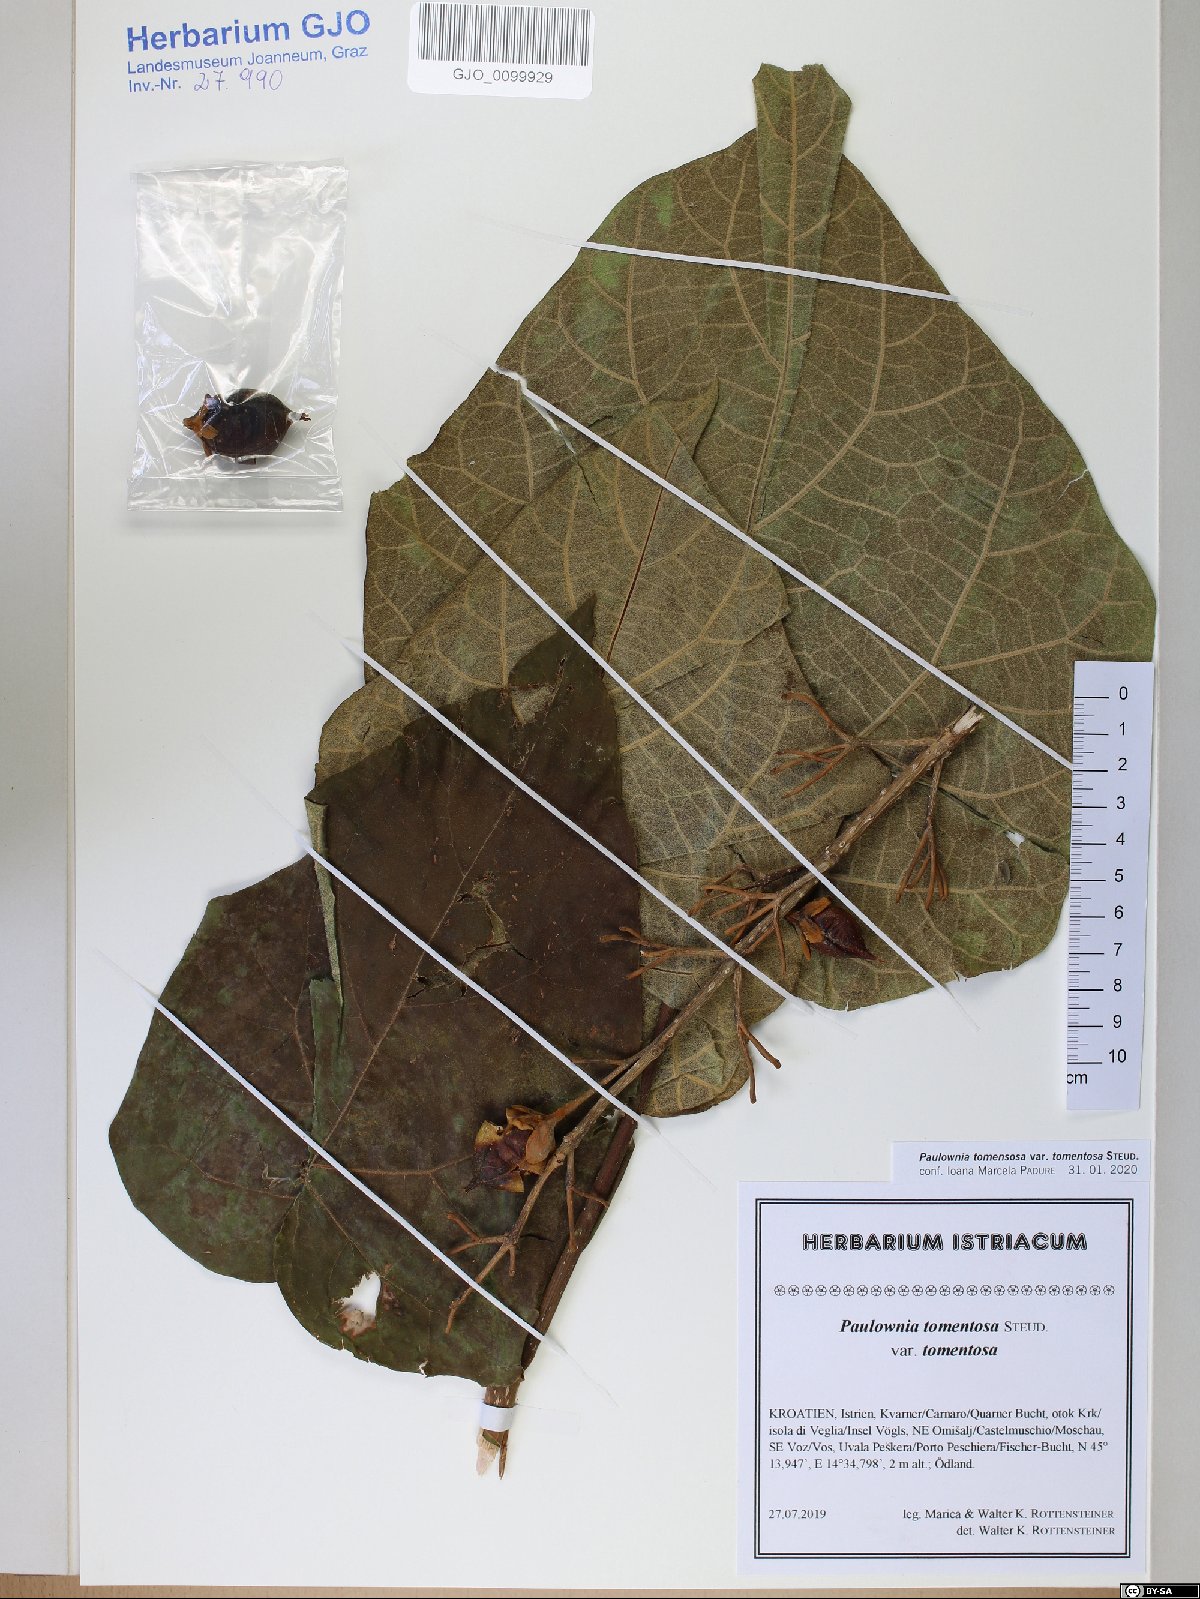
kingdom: Plantae
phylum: Tracheophyta
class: Magnoliopsida
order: Lamiales
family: Paulowniaceae
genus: Paulownia
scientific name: Paulownia tomentosa
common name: Foxglove-tree
